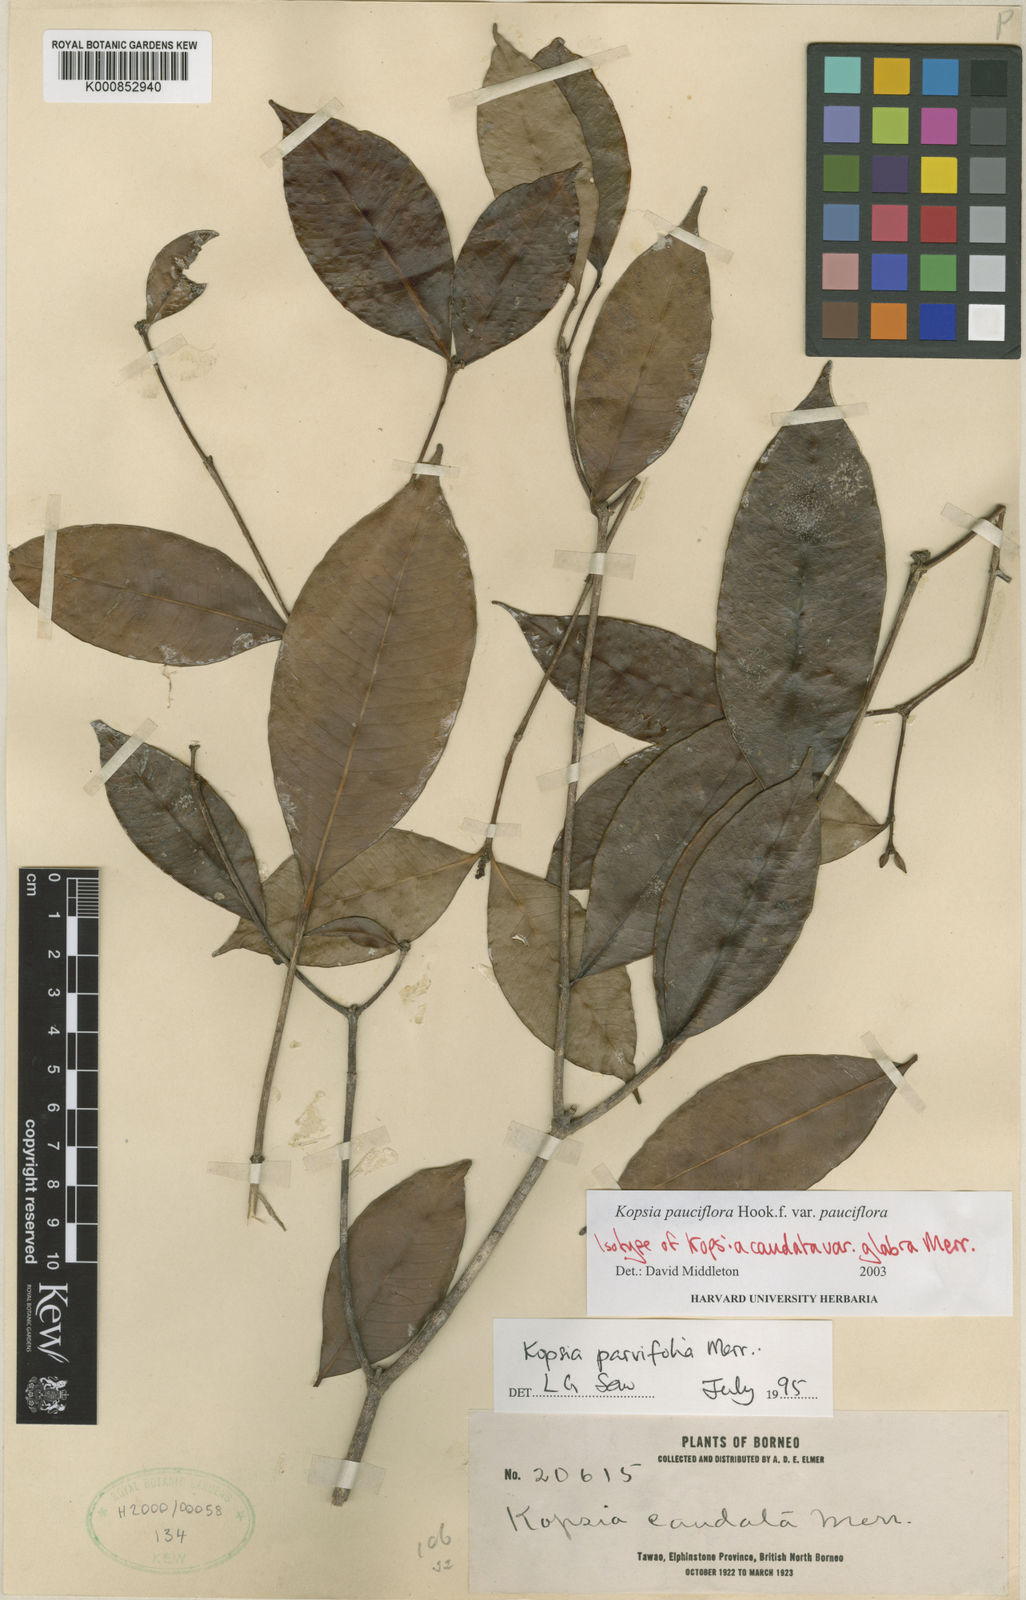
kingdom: Plantae
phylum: Tracheophyta
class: Magnoliopsida
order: Gentianales
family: Apocynaceae
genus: Kopsia
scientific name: Kopsia pauciflora
